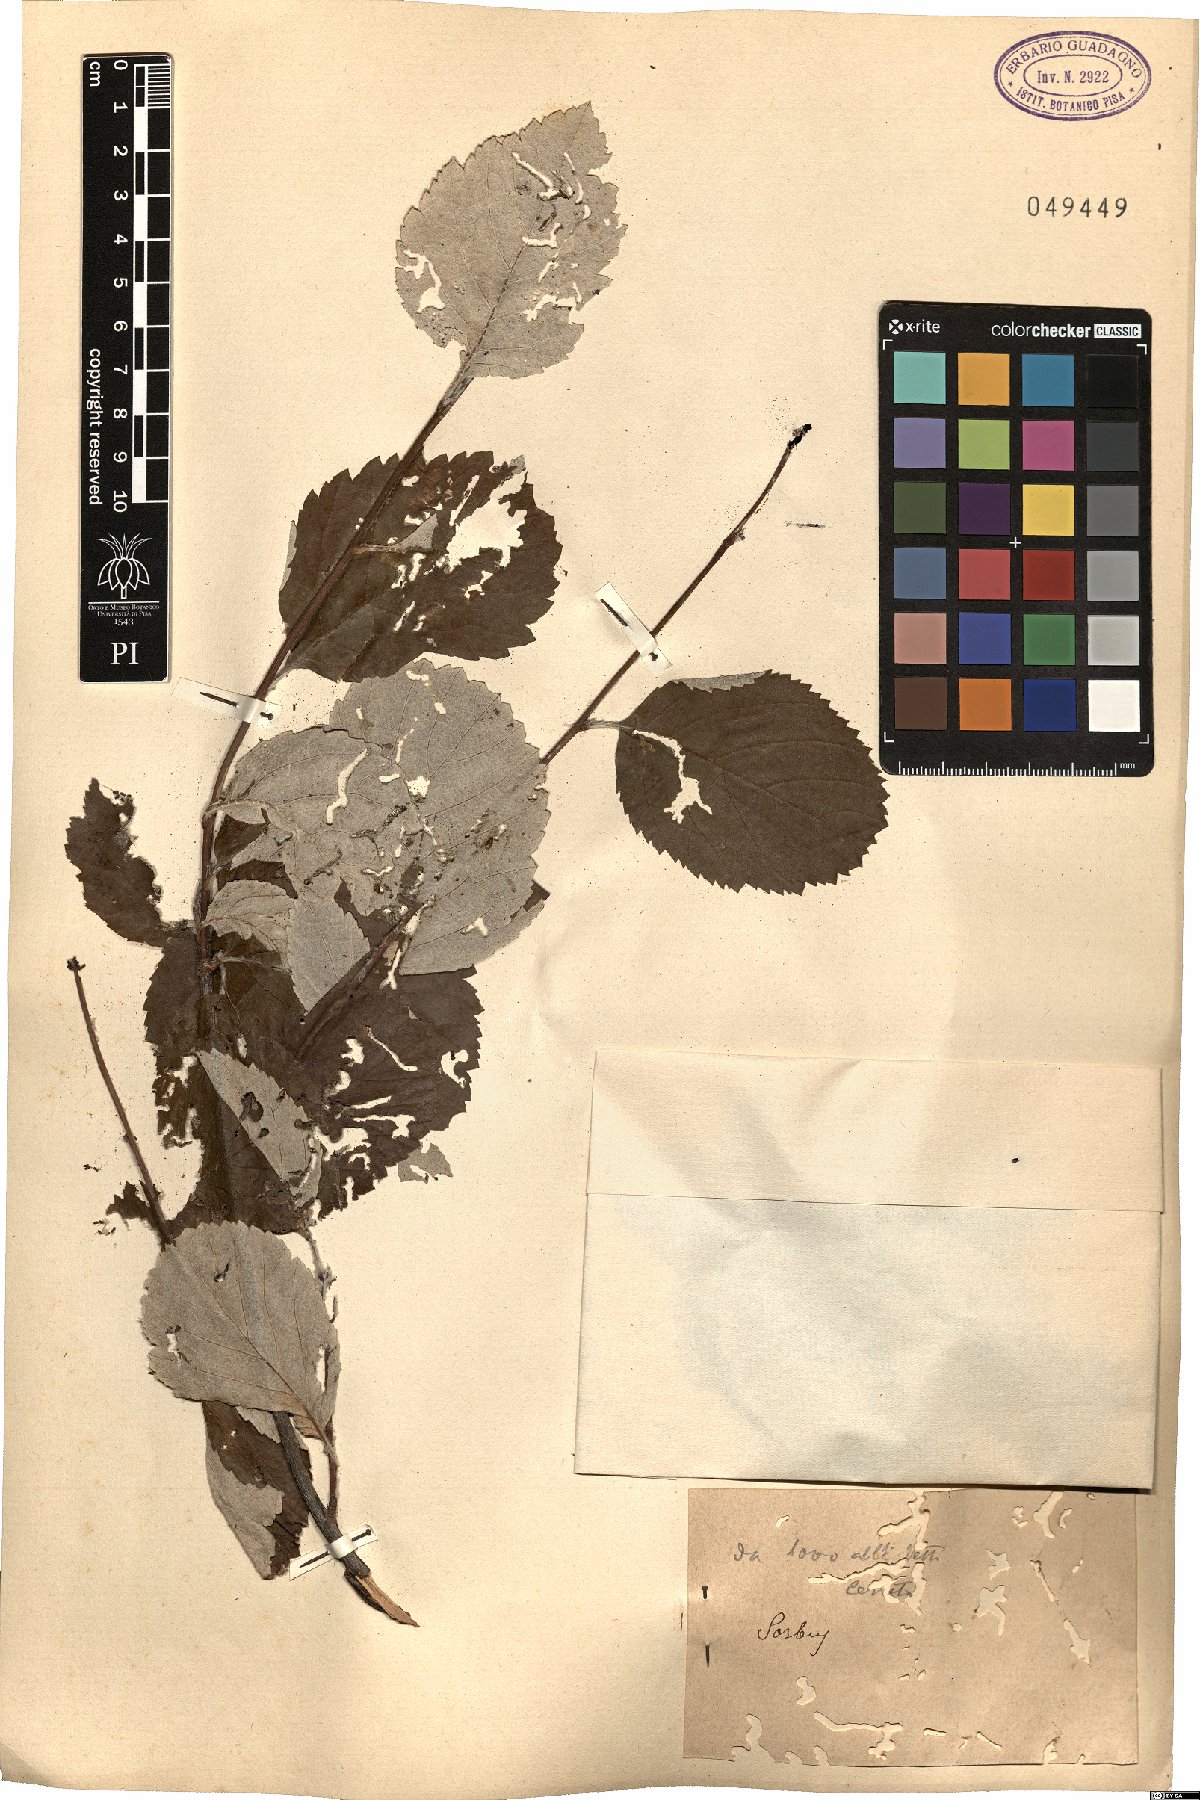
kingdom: Plantae
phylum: Tracheophyta
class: Magnoliopsida
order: Rosales
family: Rosaceae
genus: Sorbus
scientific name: Sorbus
